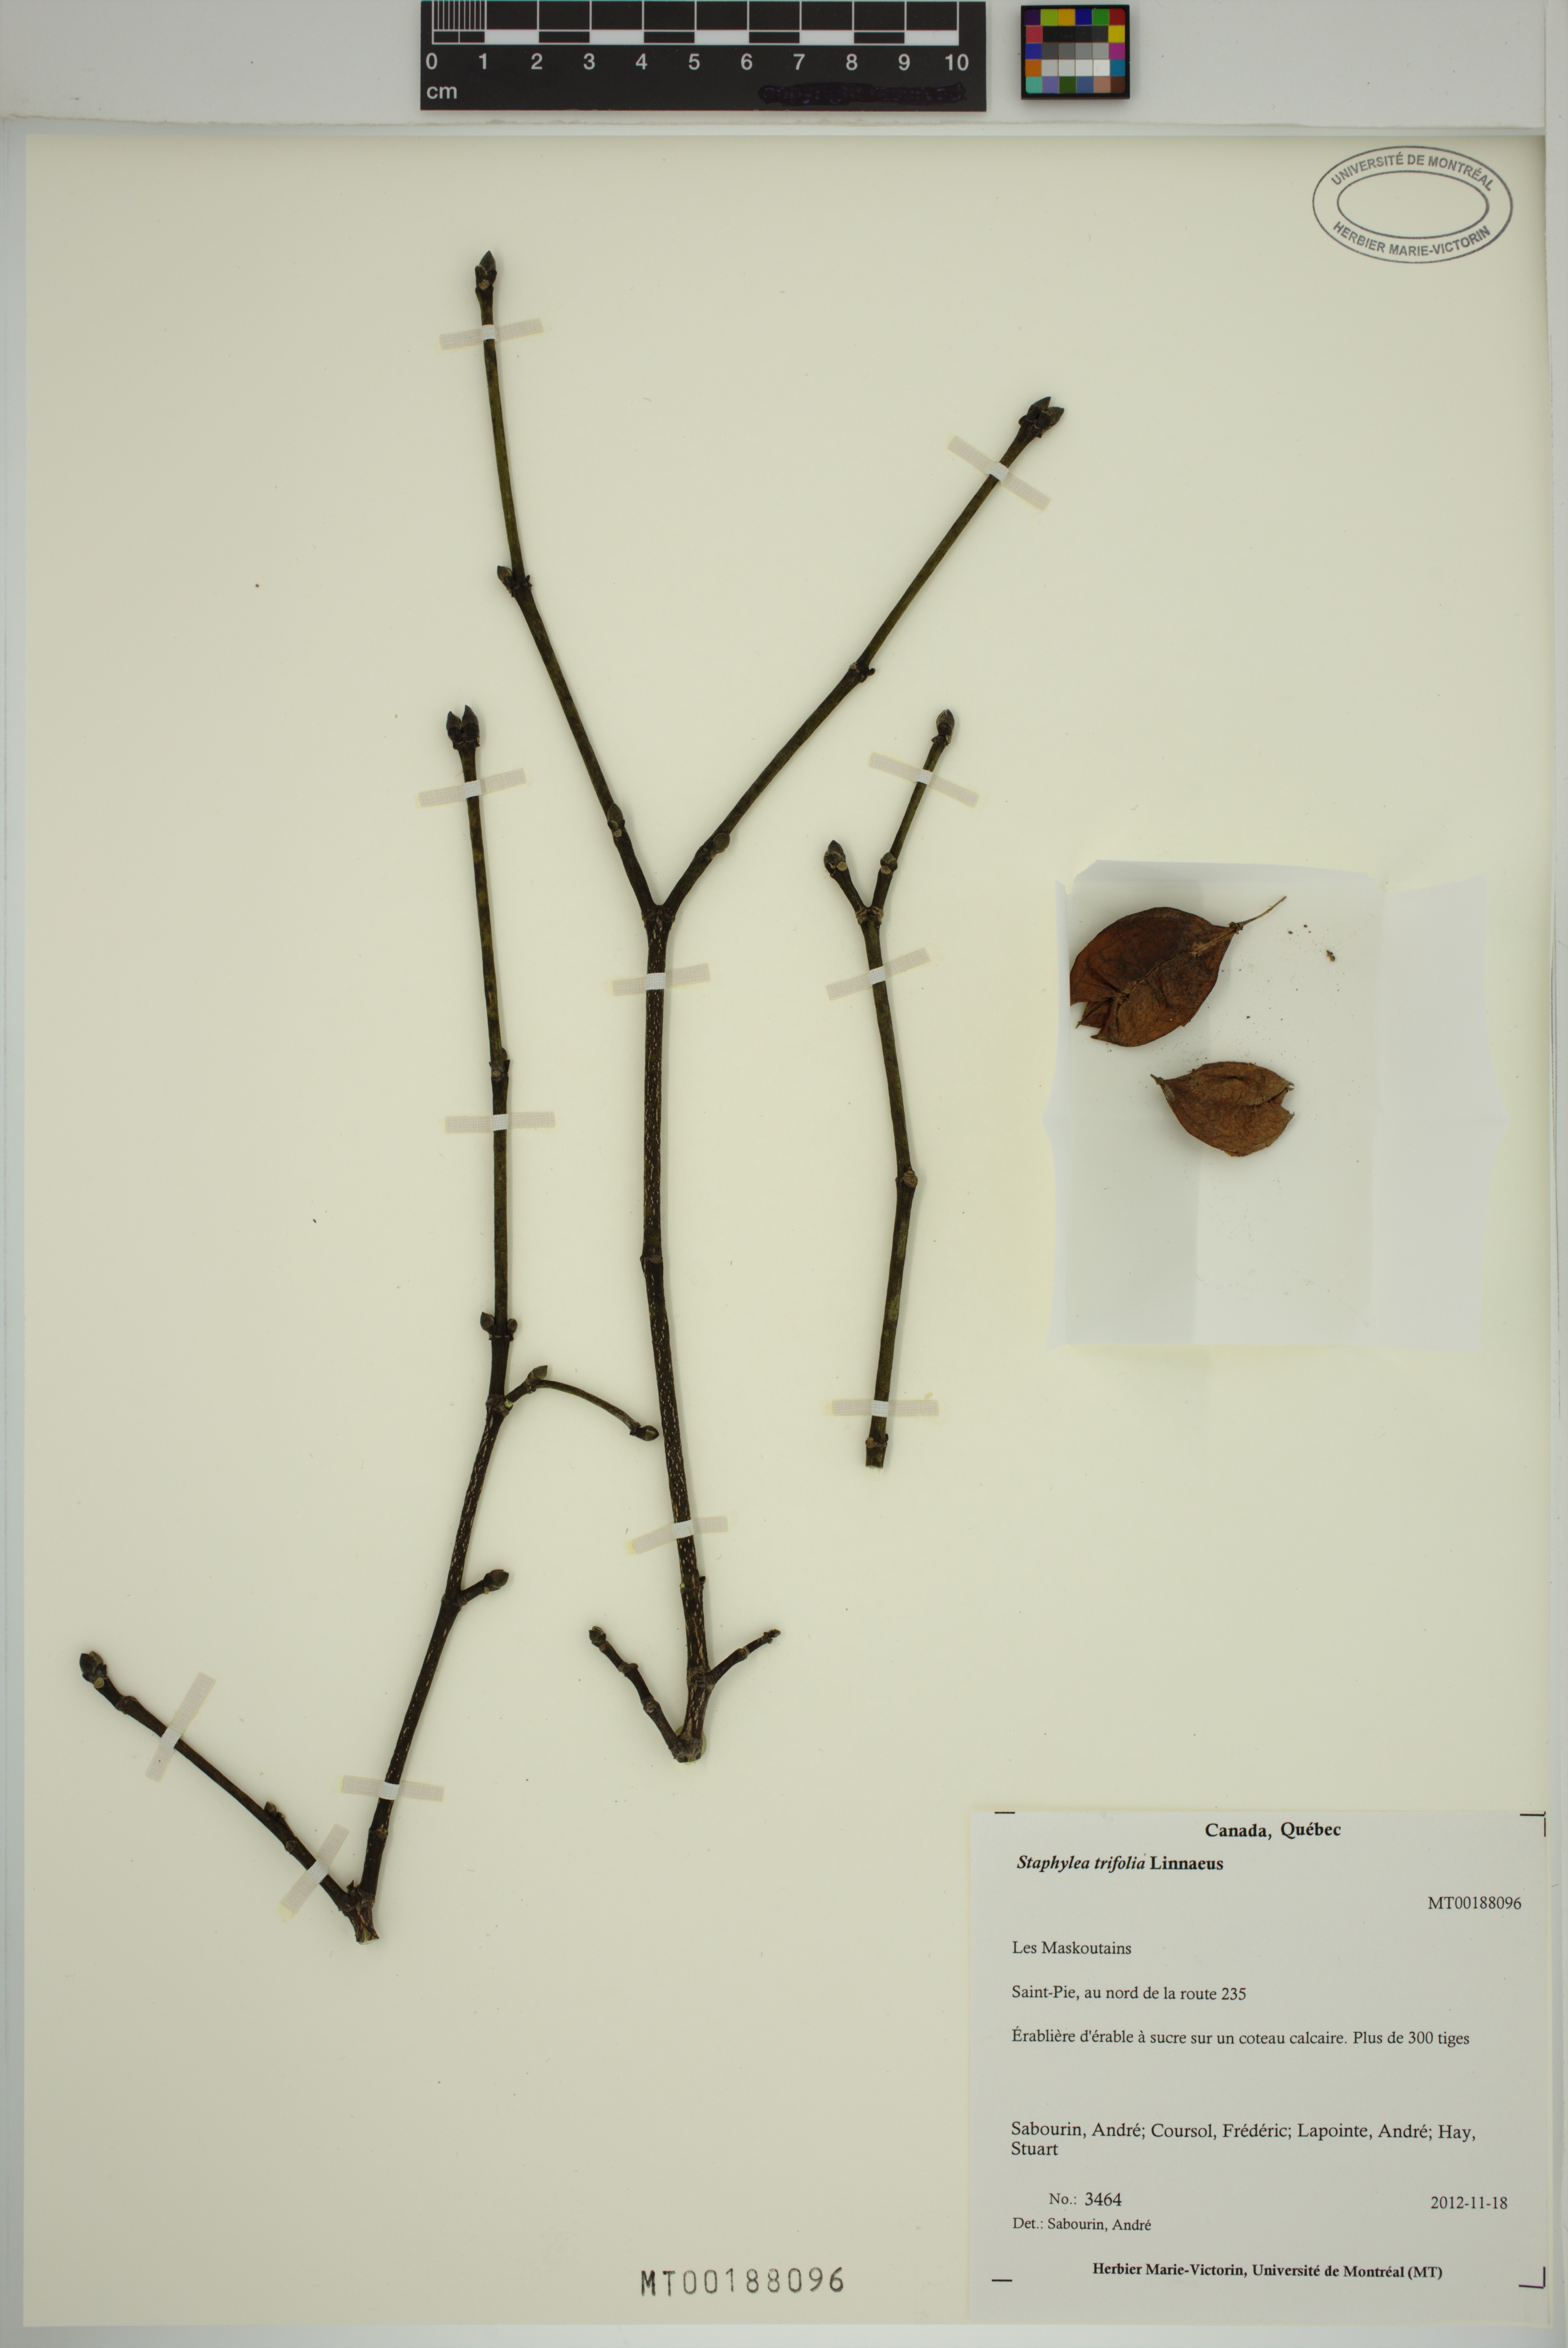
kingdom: Plantae
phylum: Tracheophyta
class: Magnoliopsida
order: Crossosomatales
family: Staphyleaceae
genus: Staphylea
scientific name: Staphylea trifolia
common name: American bladdernut
